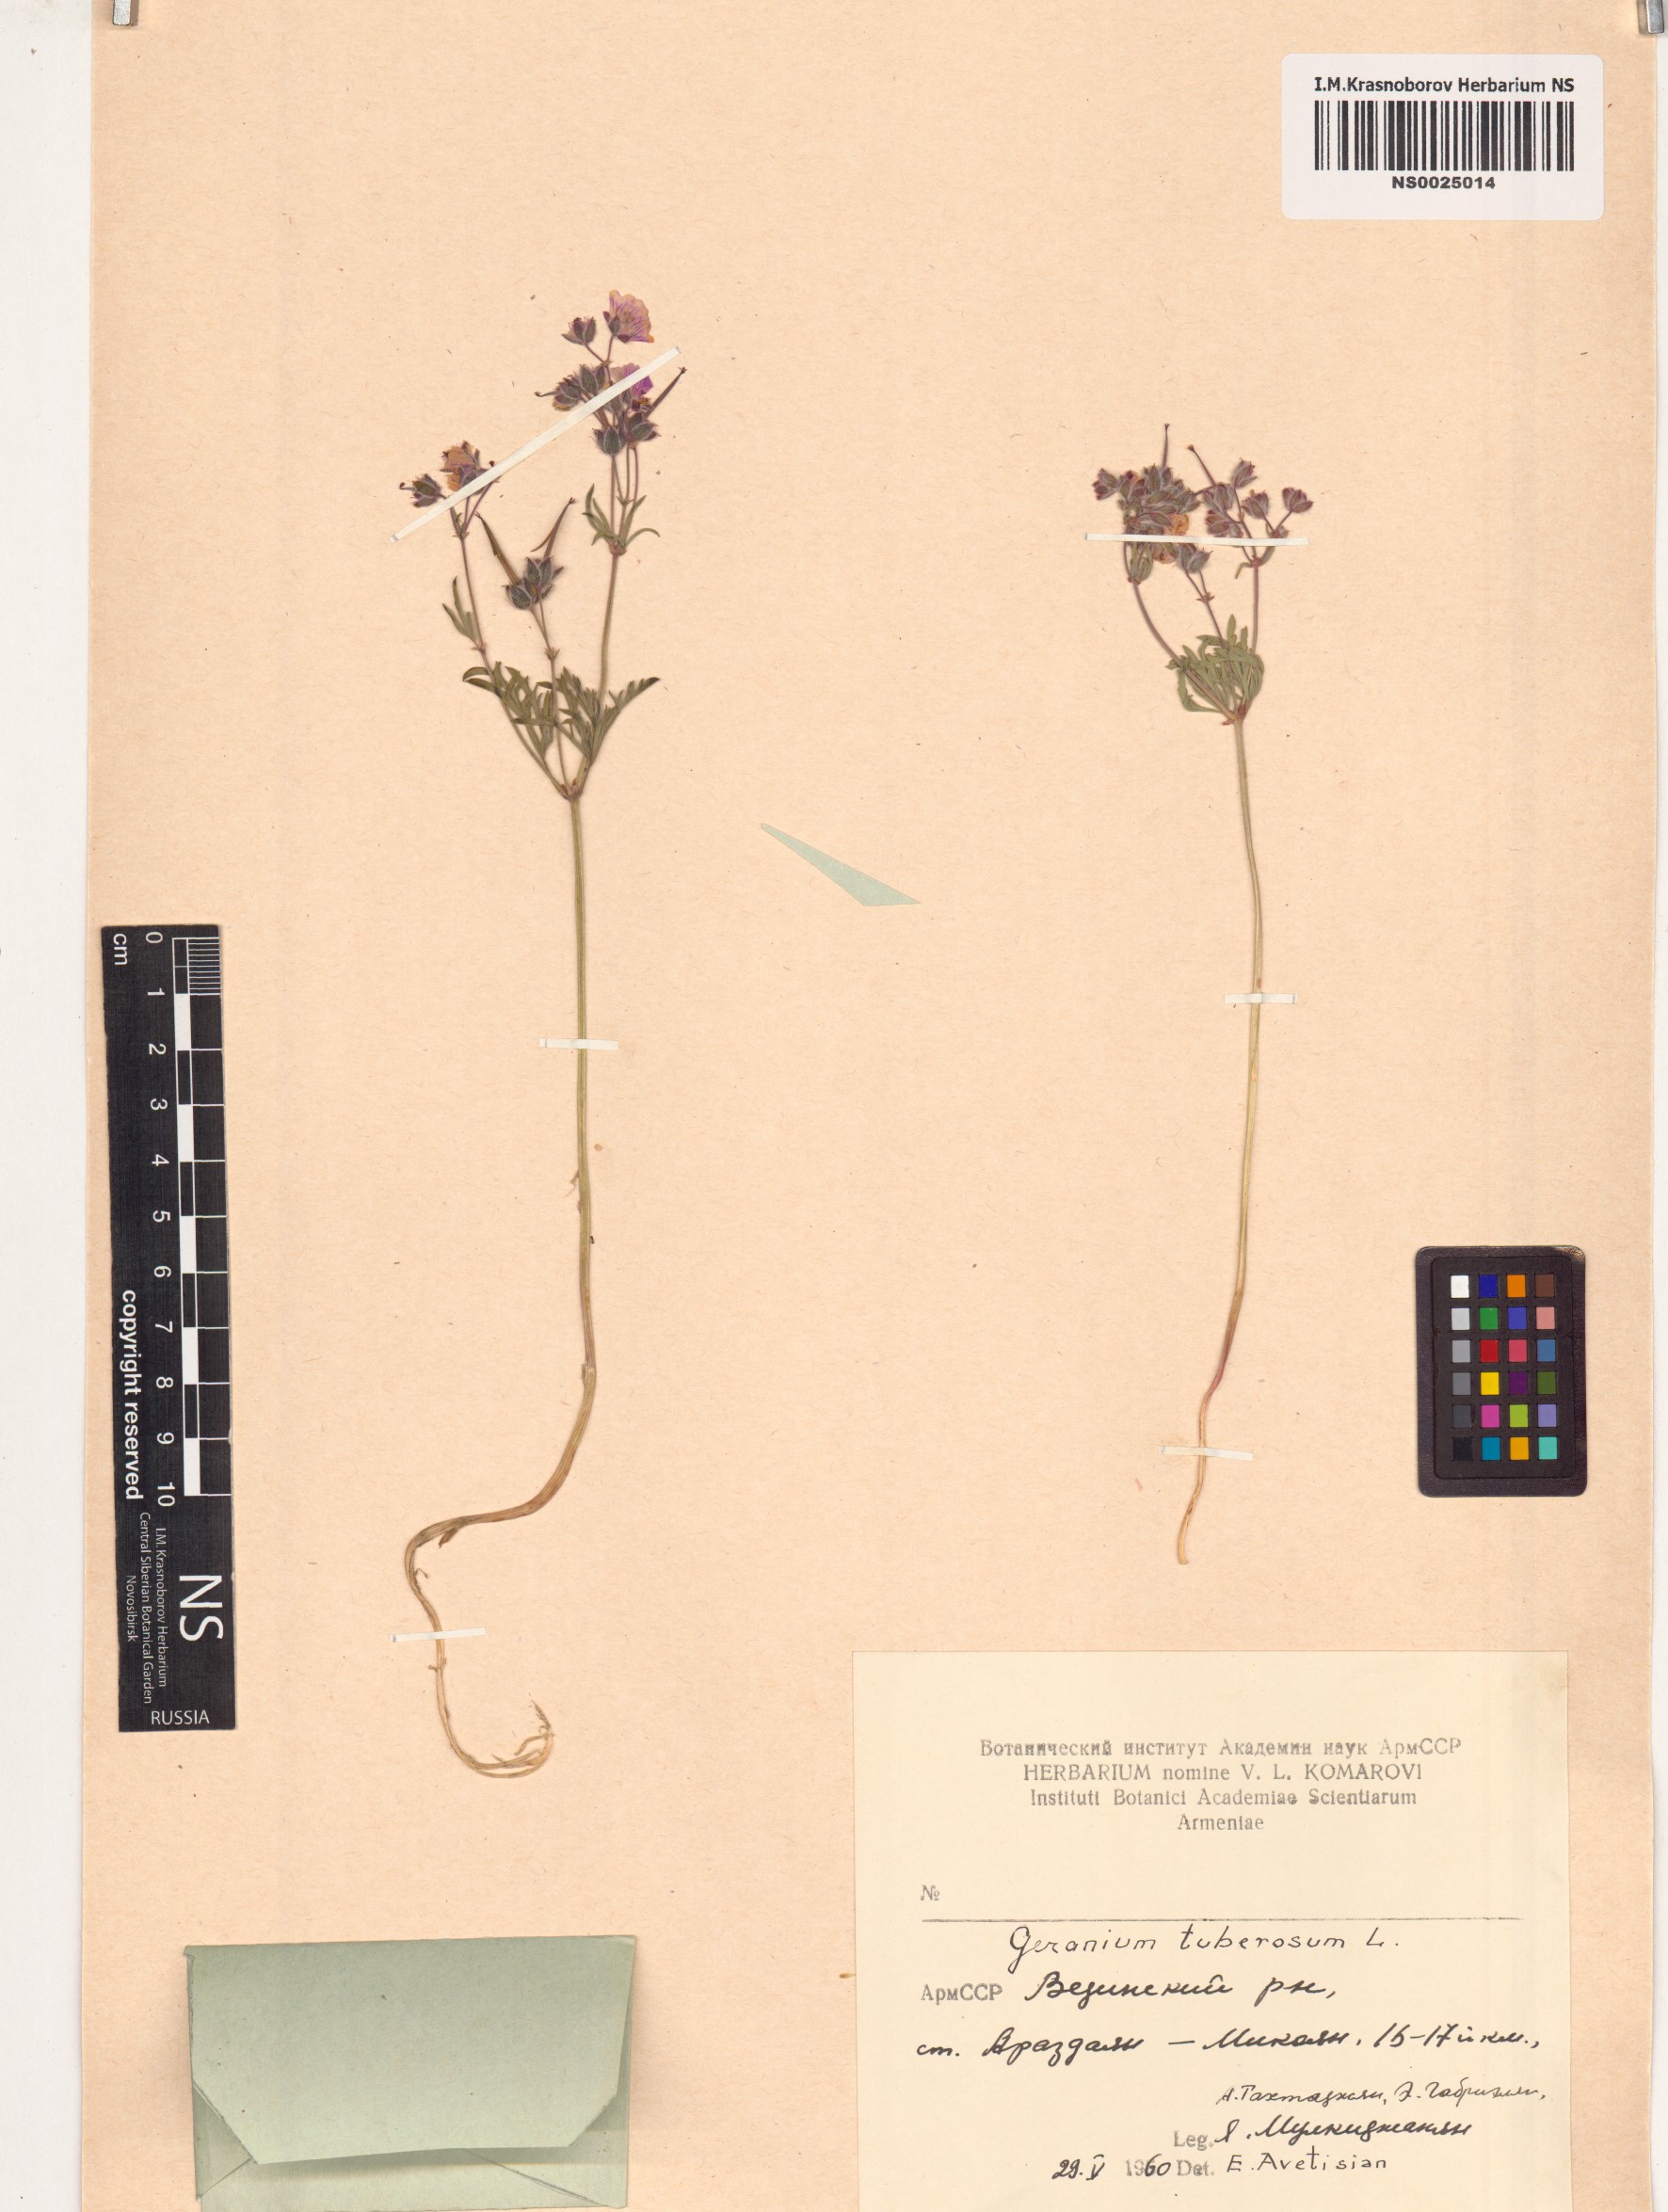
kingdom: Plantae
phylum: Tracheophyta
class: Magnoliopsida
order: Geraniales
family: Geraniaceae
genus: Geranium
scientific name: Geranium tuberosum
